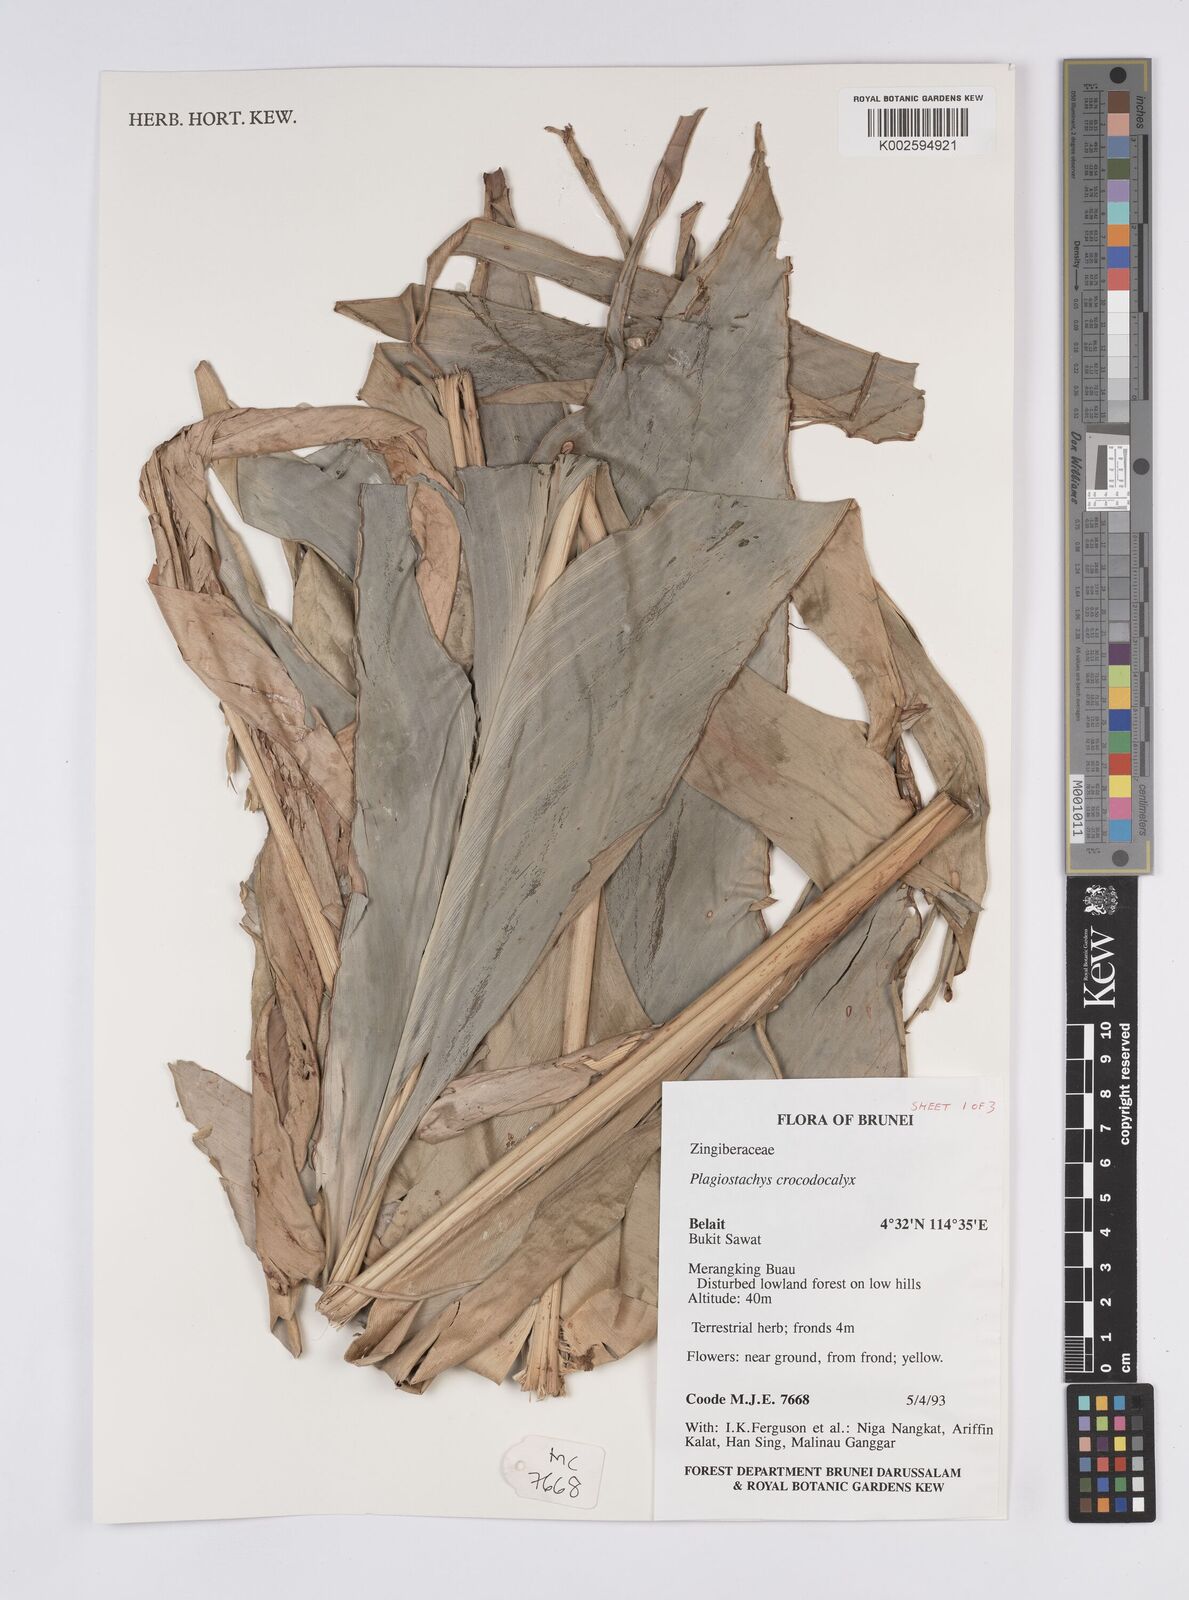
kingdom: Plantae
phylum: Tracheophyta
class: Liliopsida
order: Zingiberales
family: Zingiberaceae
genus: Plagiostachys
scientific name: Plagiostachys crocydocalyx
